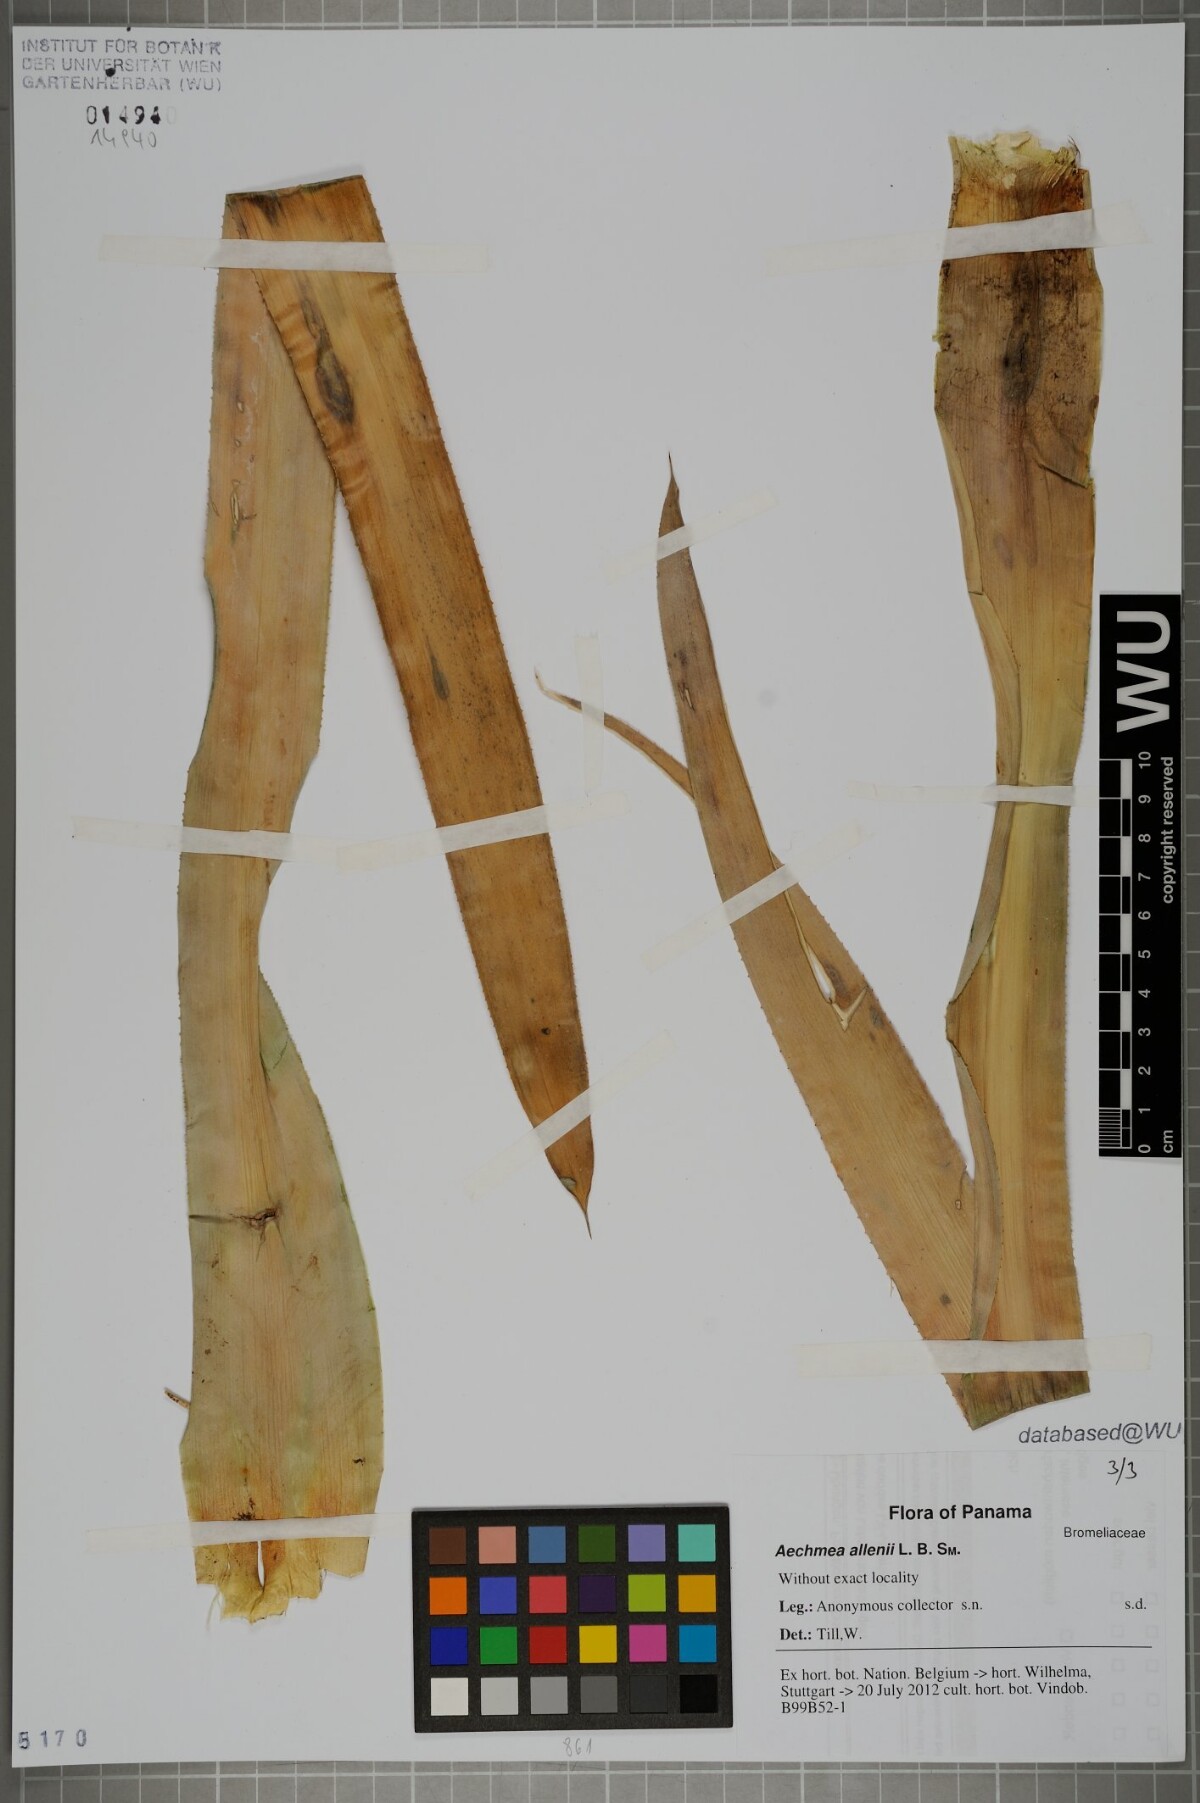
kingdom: Plantae
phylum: Tracheophyta
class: Liliopsida
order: Poales
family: Bromeliaceae
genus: Ronnbergia
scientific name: Ronnbergia allenii
